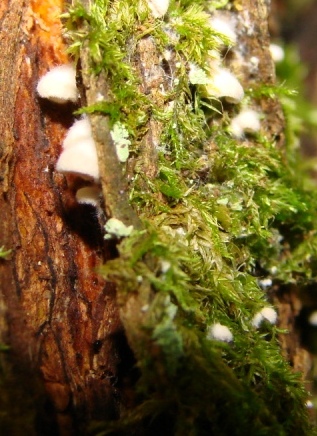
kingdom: Fungi
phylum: Basidiomycota
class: Agaricomycetes
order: Agaricales
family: Entolomataceae
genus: Clitopilus
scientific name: Clitopilus hobsonii
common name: Miller's oysterling
